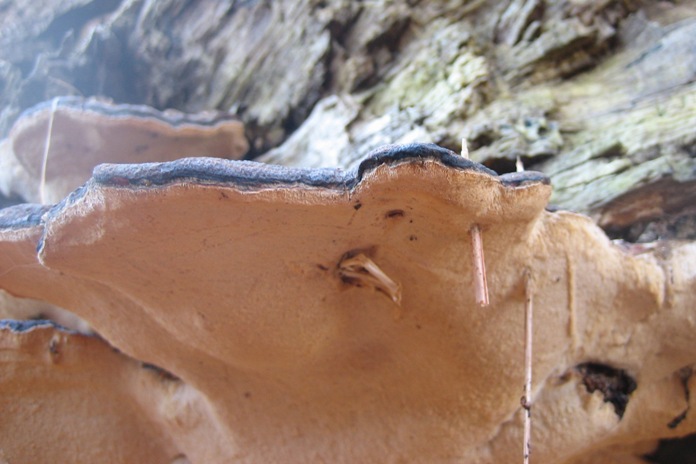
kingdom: Fungi
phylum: Basidiomycota
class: Agaricomycetes
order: Polyporales
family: Ischnodermataceae
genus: Ischnoderma
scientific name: Ischnoderma resinosum
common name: løv-tjæreporesvamp
